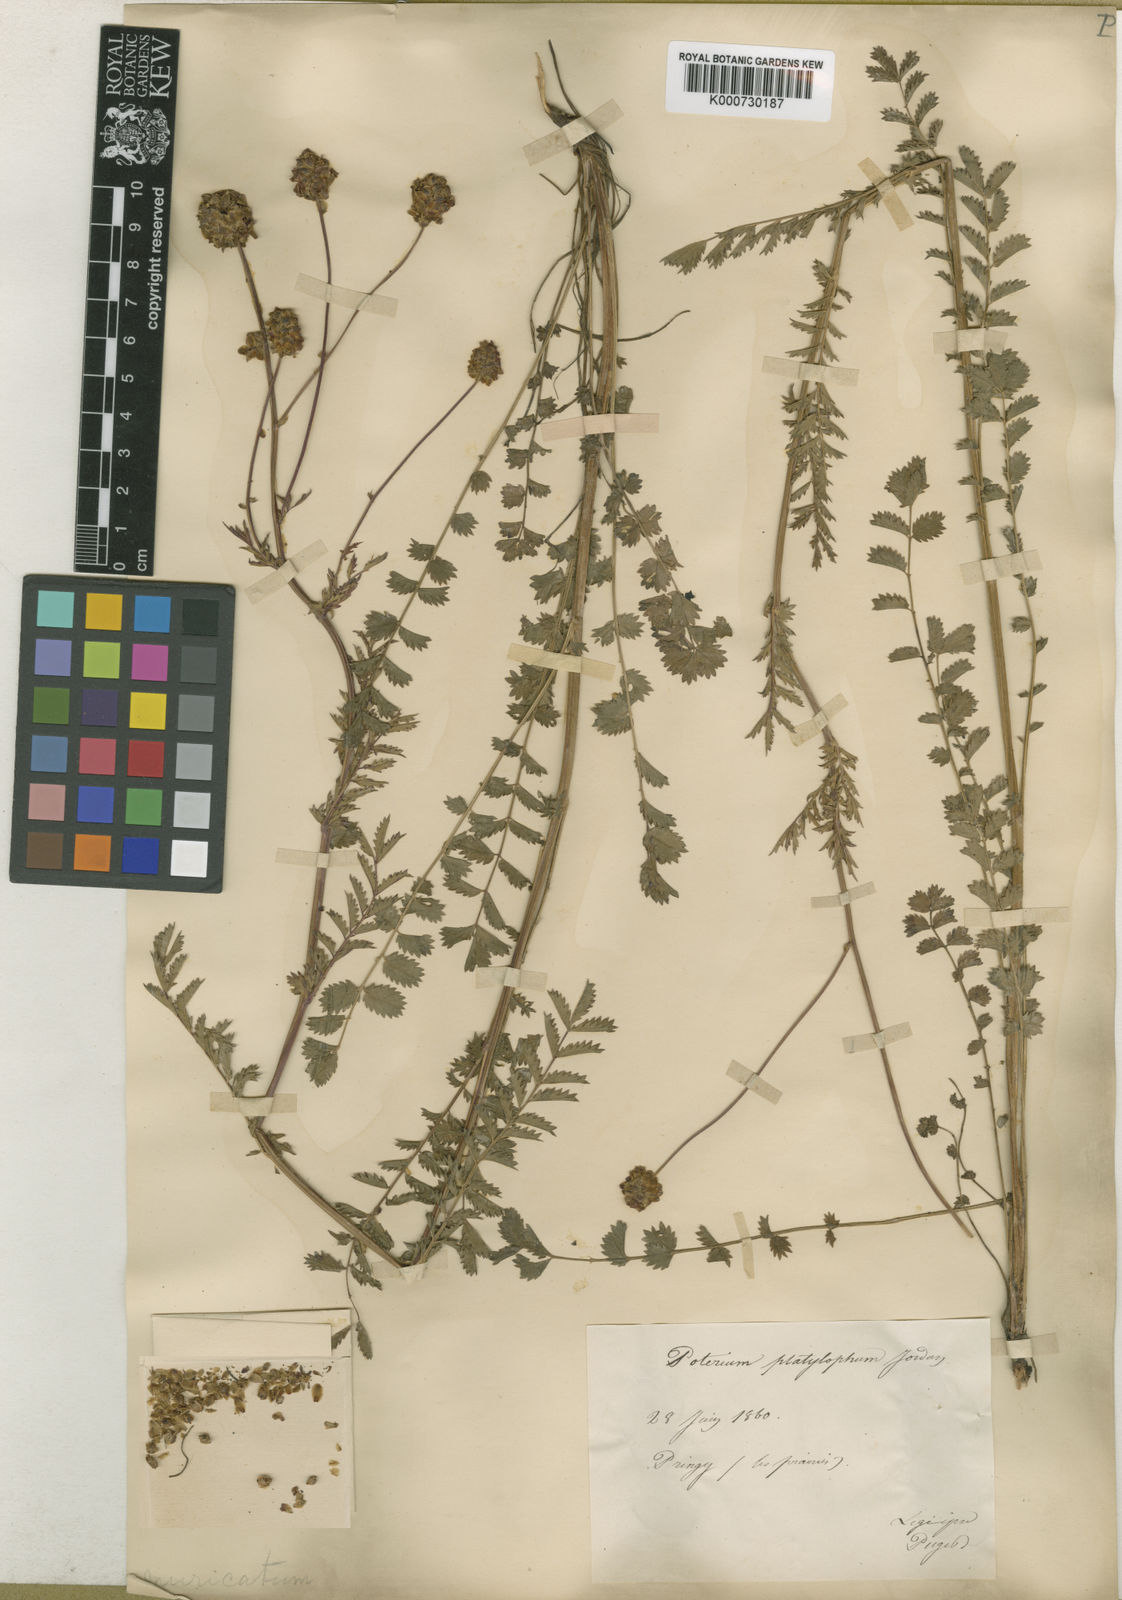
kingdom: Plantae
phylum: Tracheophyta
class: Magnoliopsida
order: Rosales
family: Rosaceae
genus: Sanguisorba
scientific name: Sanguisorba
